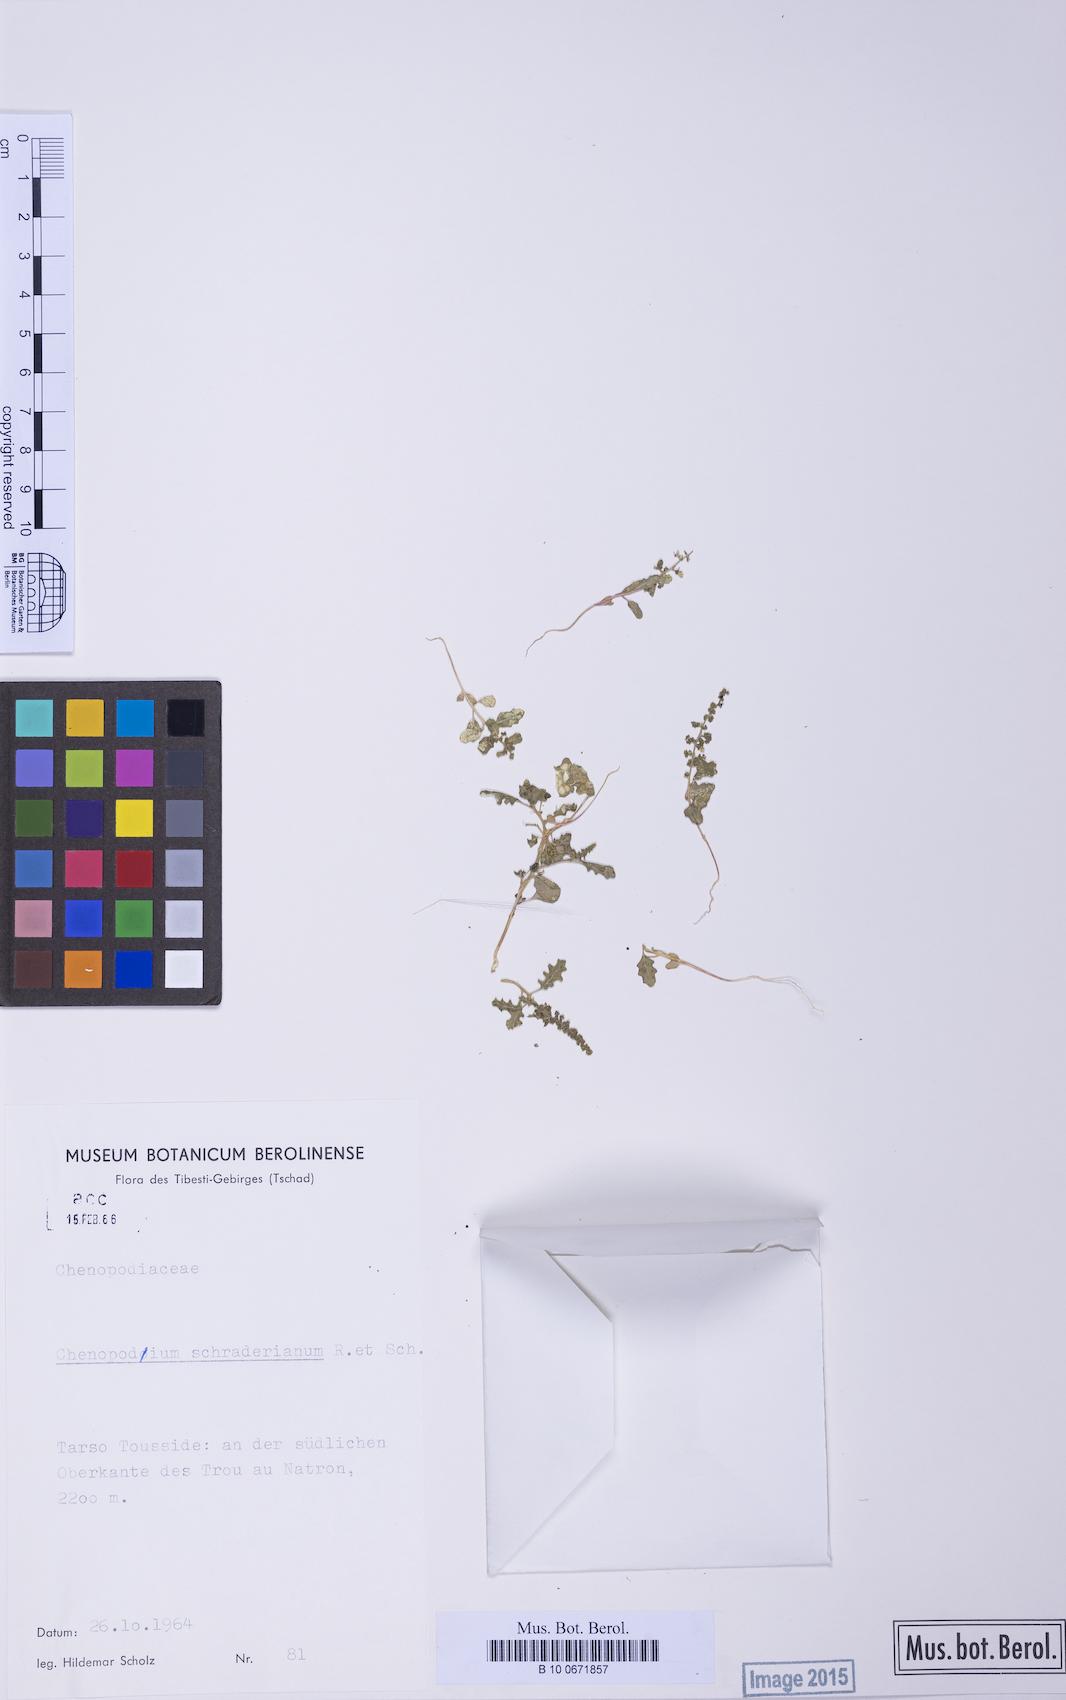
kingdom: Plantae
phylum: Tracheophyta
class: Magnoliopsida
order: Caryophyllales
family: Amaranthaceae
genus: Dysphania
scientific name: Dysphania schraderiana
